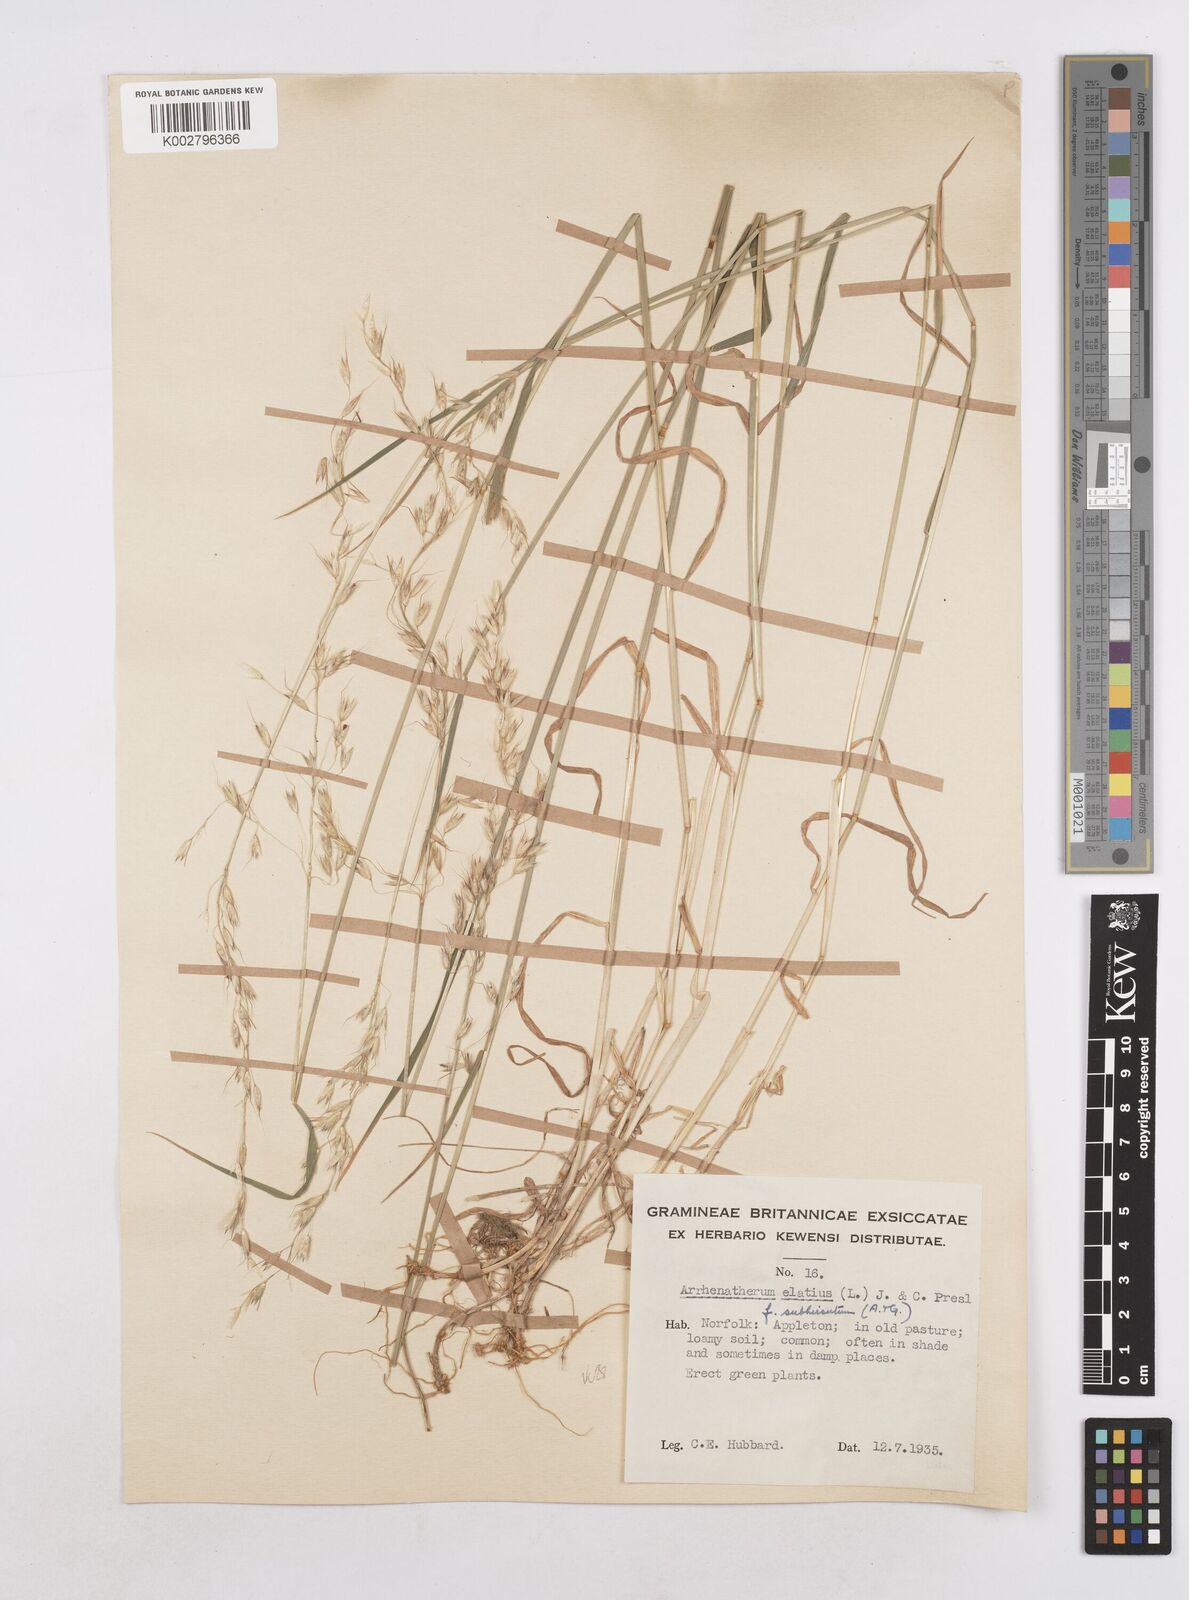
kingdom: Plantae
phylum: Tracheophyta
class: Liliopsida
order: Poales
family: Poaceae
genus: Arrhenatherum
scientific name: Arrhenatherum elatius
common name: Tall oatgrass
